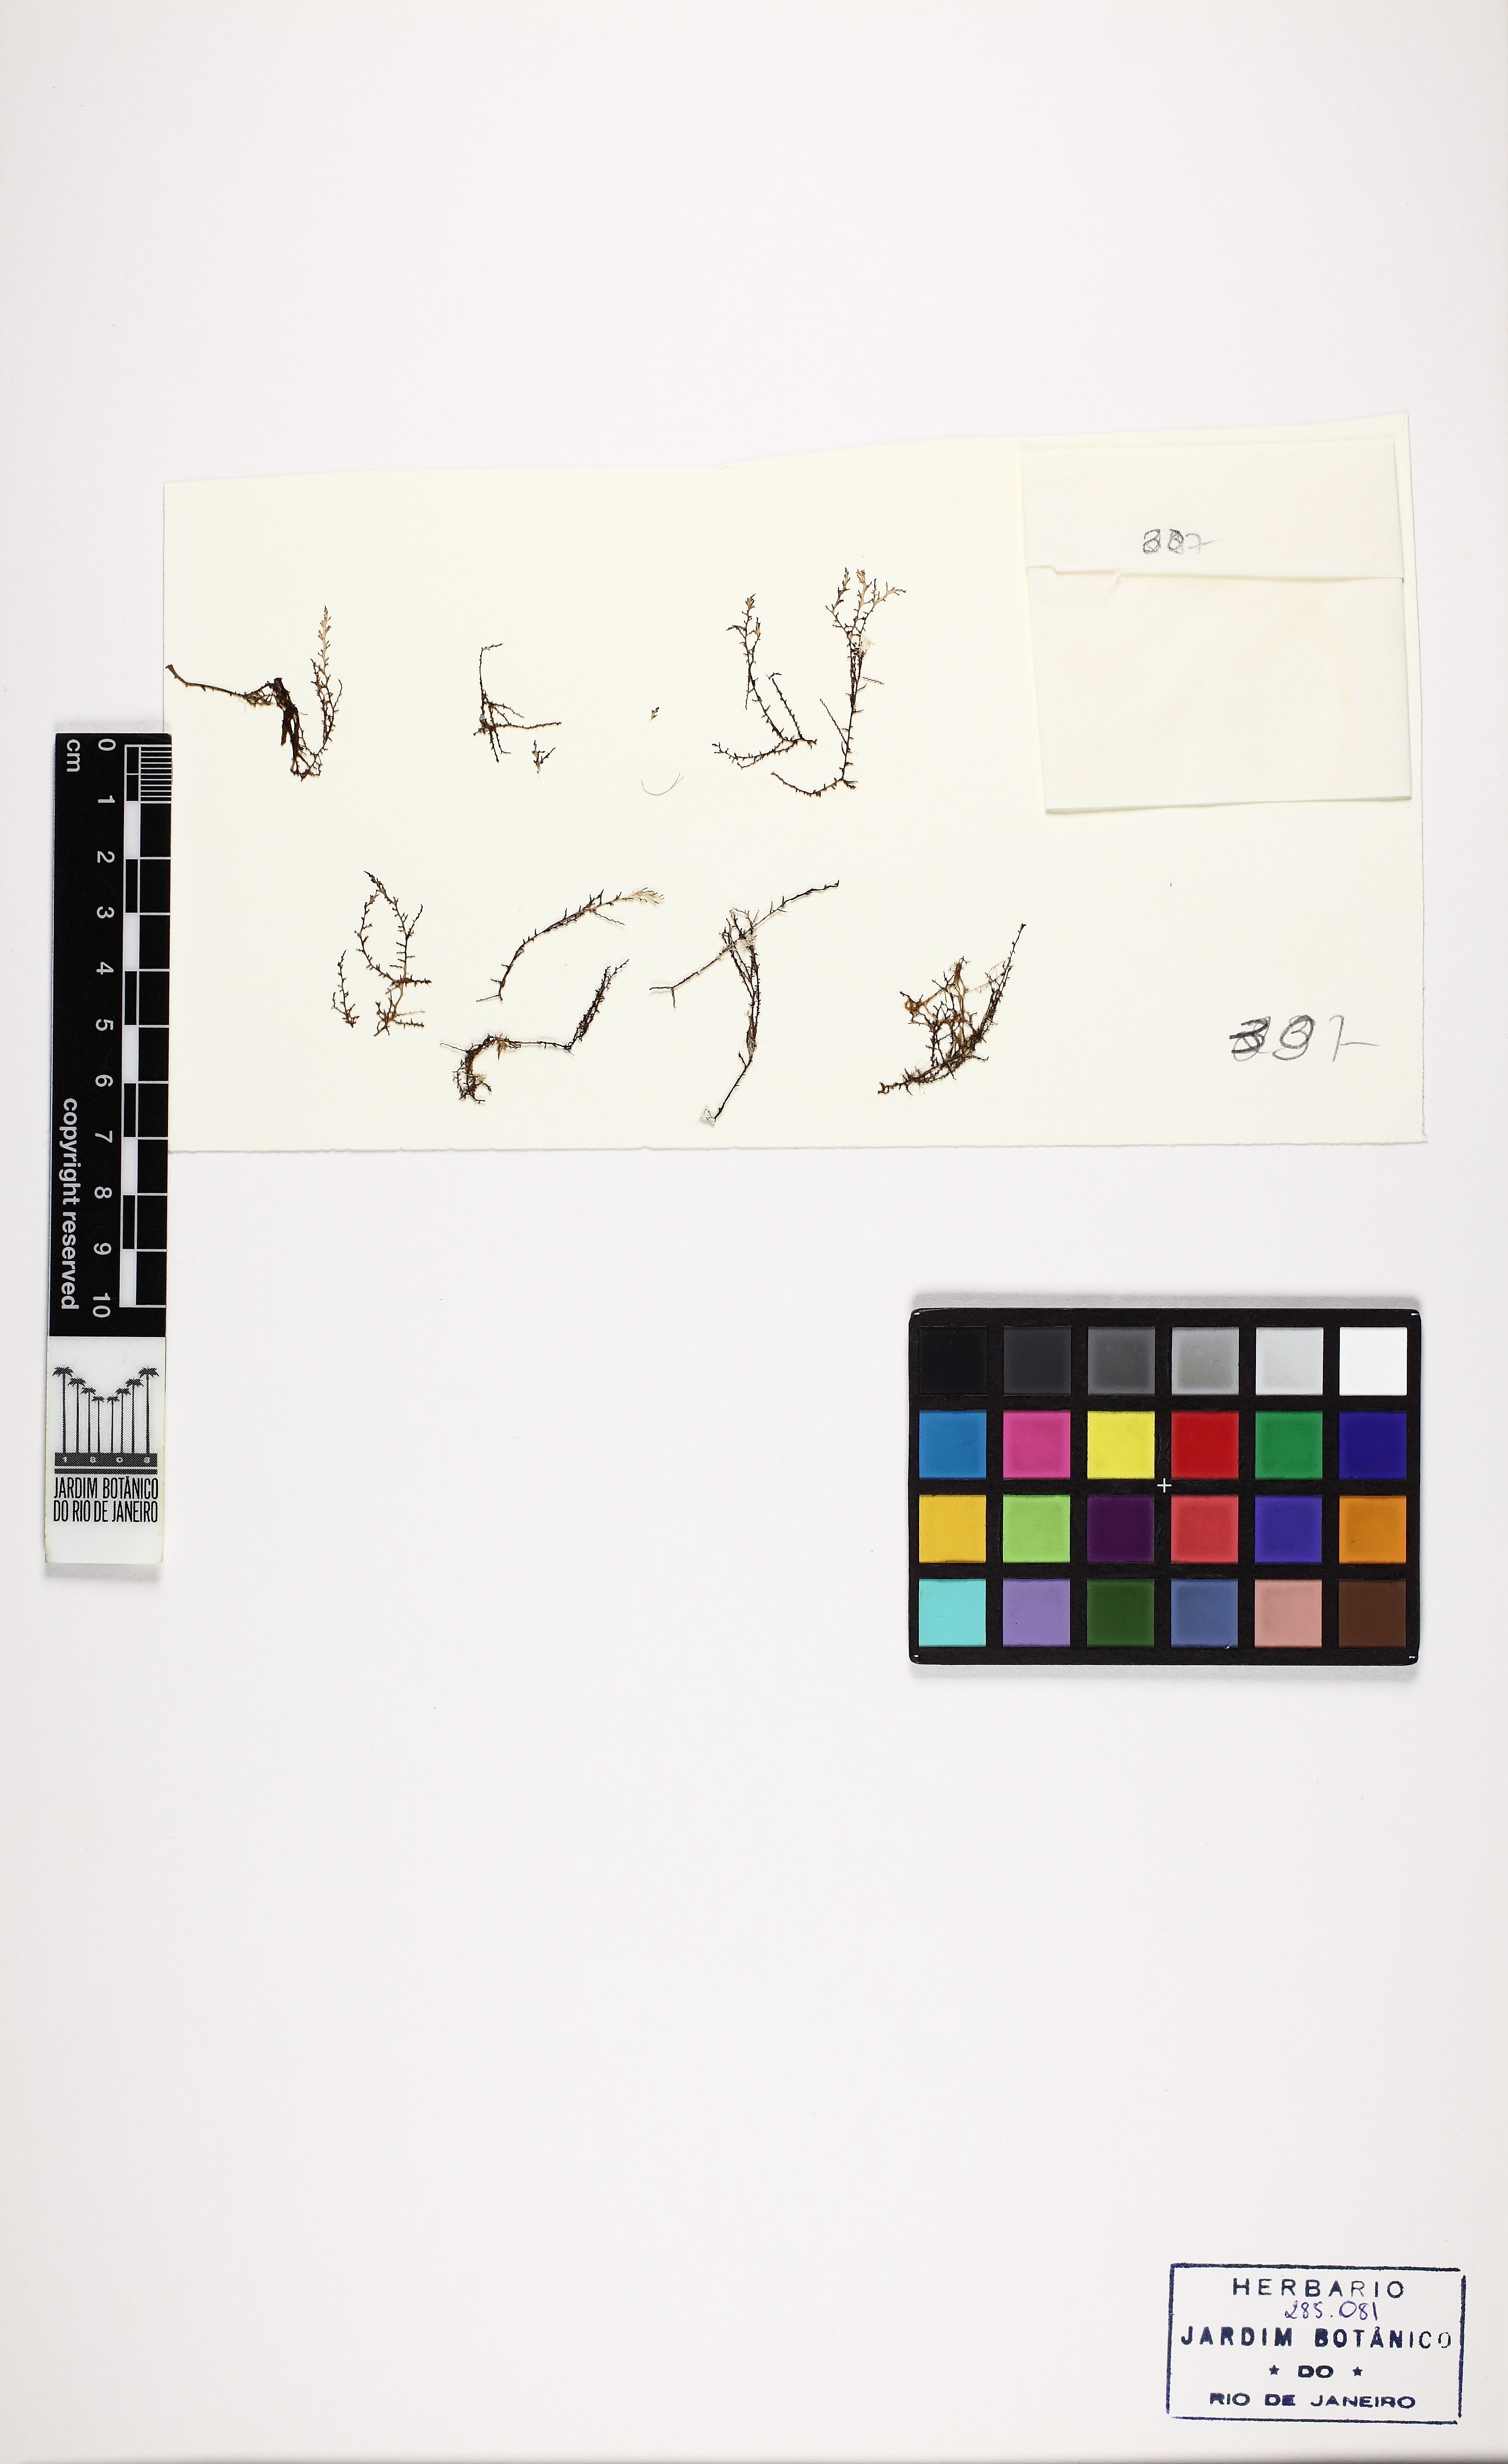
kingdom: Plantae
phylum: Rhodophyta
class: Florideophyceae
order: Ceramiales
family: Rhodomelaceae
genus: Acanthophora
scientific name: Acanthophora spicifera
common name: Red algae
